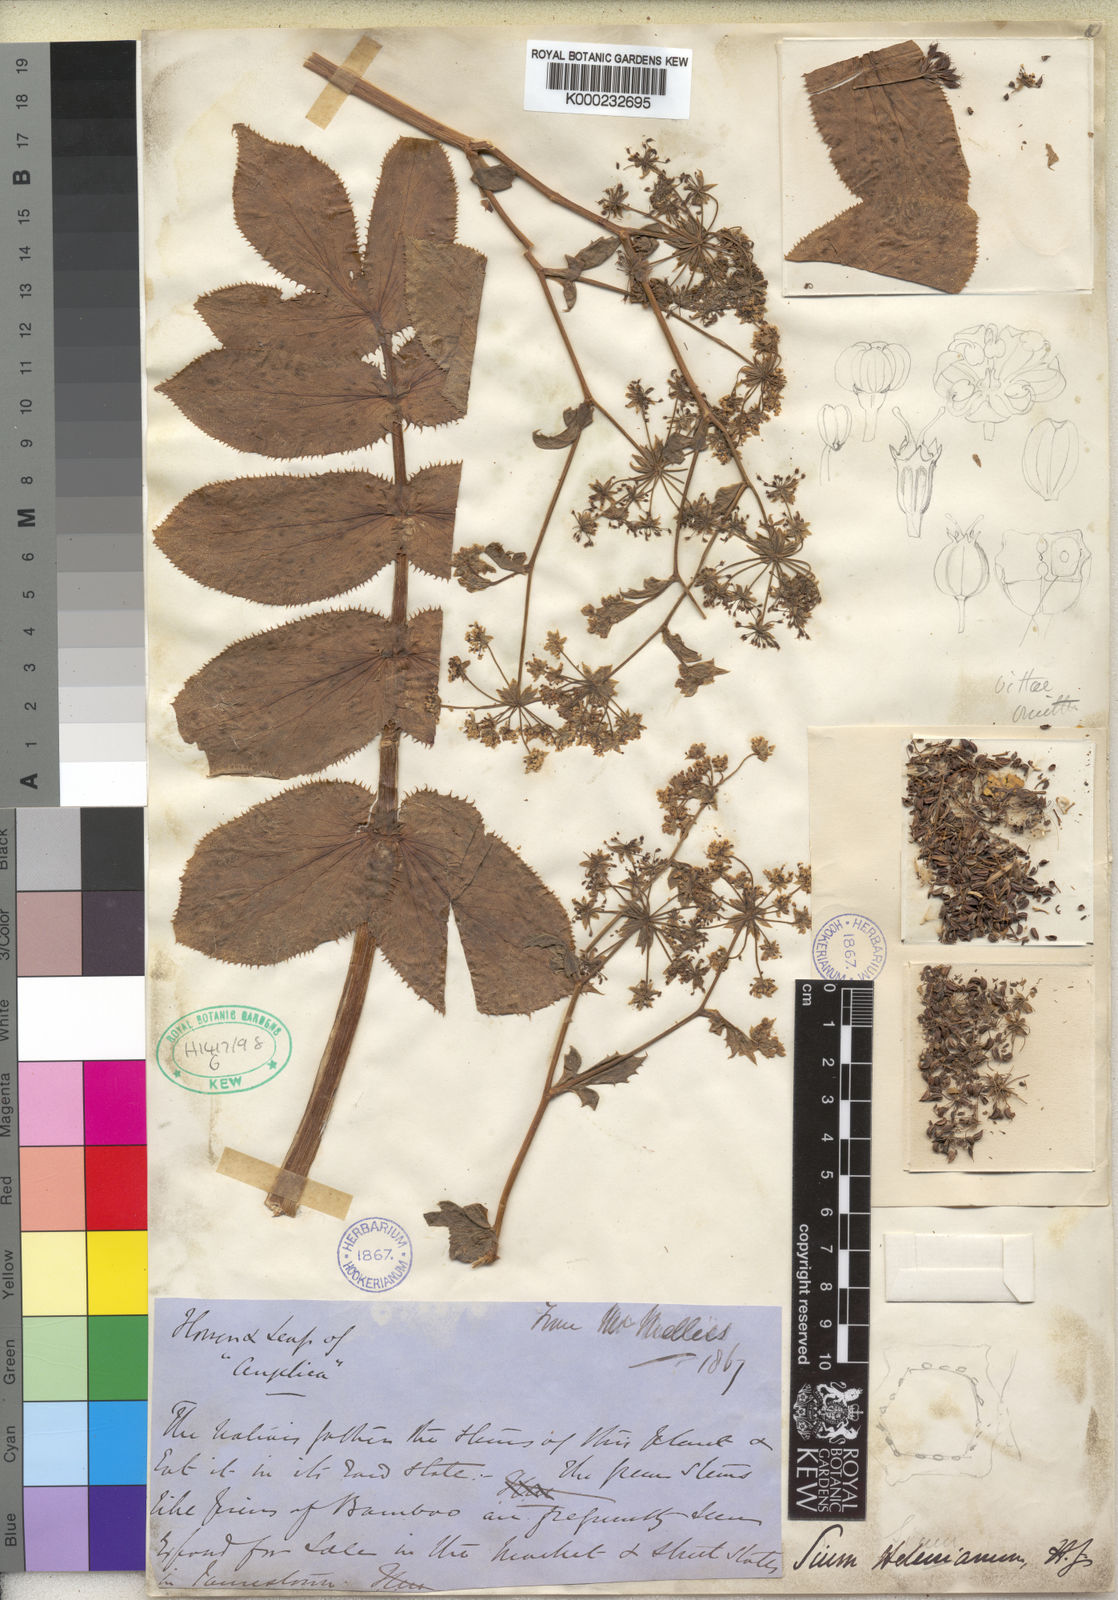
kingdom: Plantae
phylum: Tracheophyta
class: Magnoliopsida
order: Apiales
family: Apiaceae
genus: Berula
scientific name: Berula bracteata
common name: Jellico
